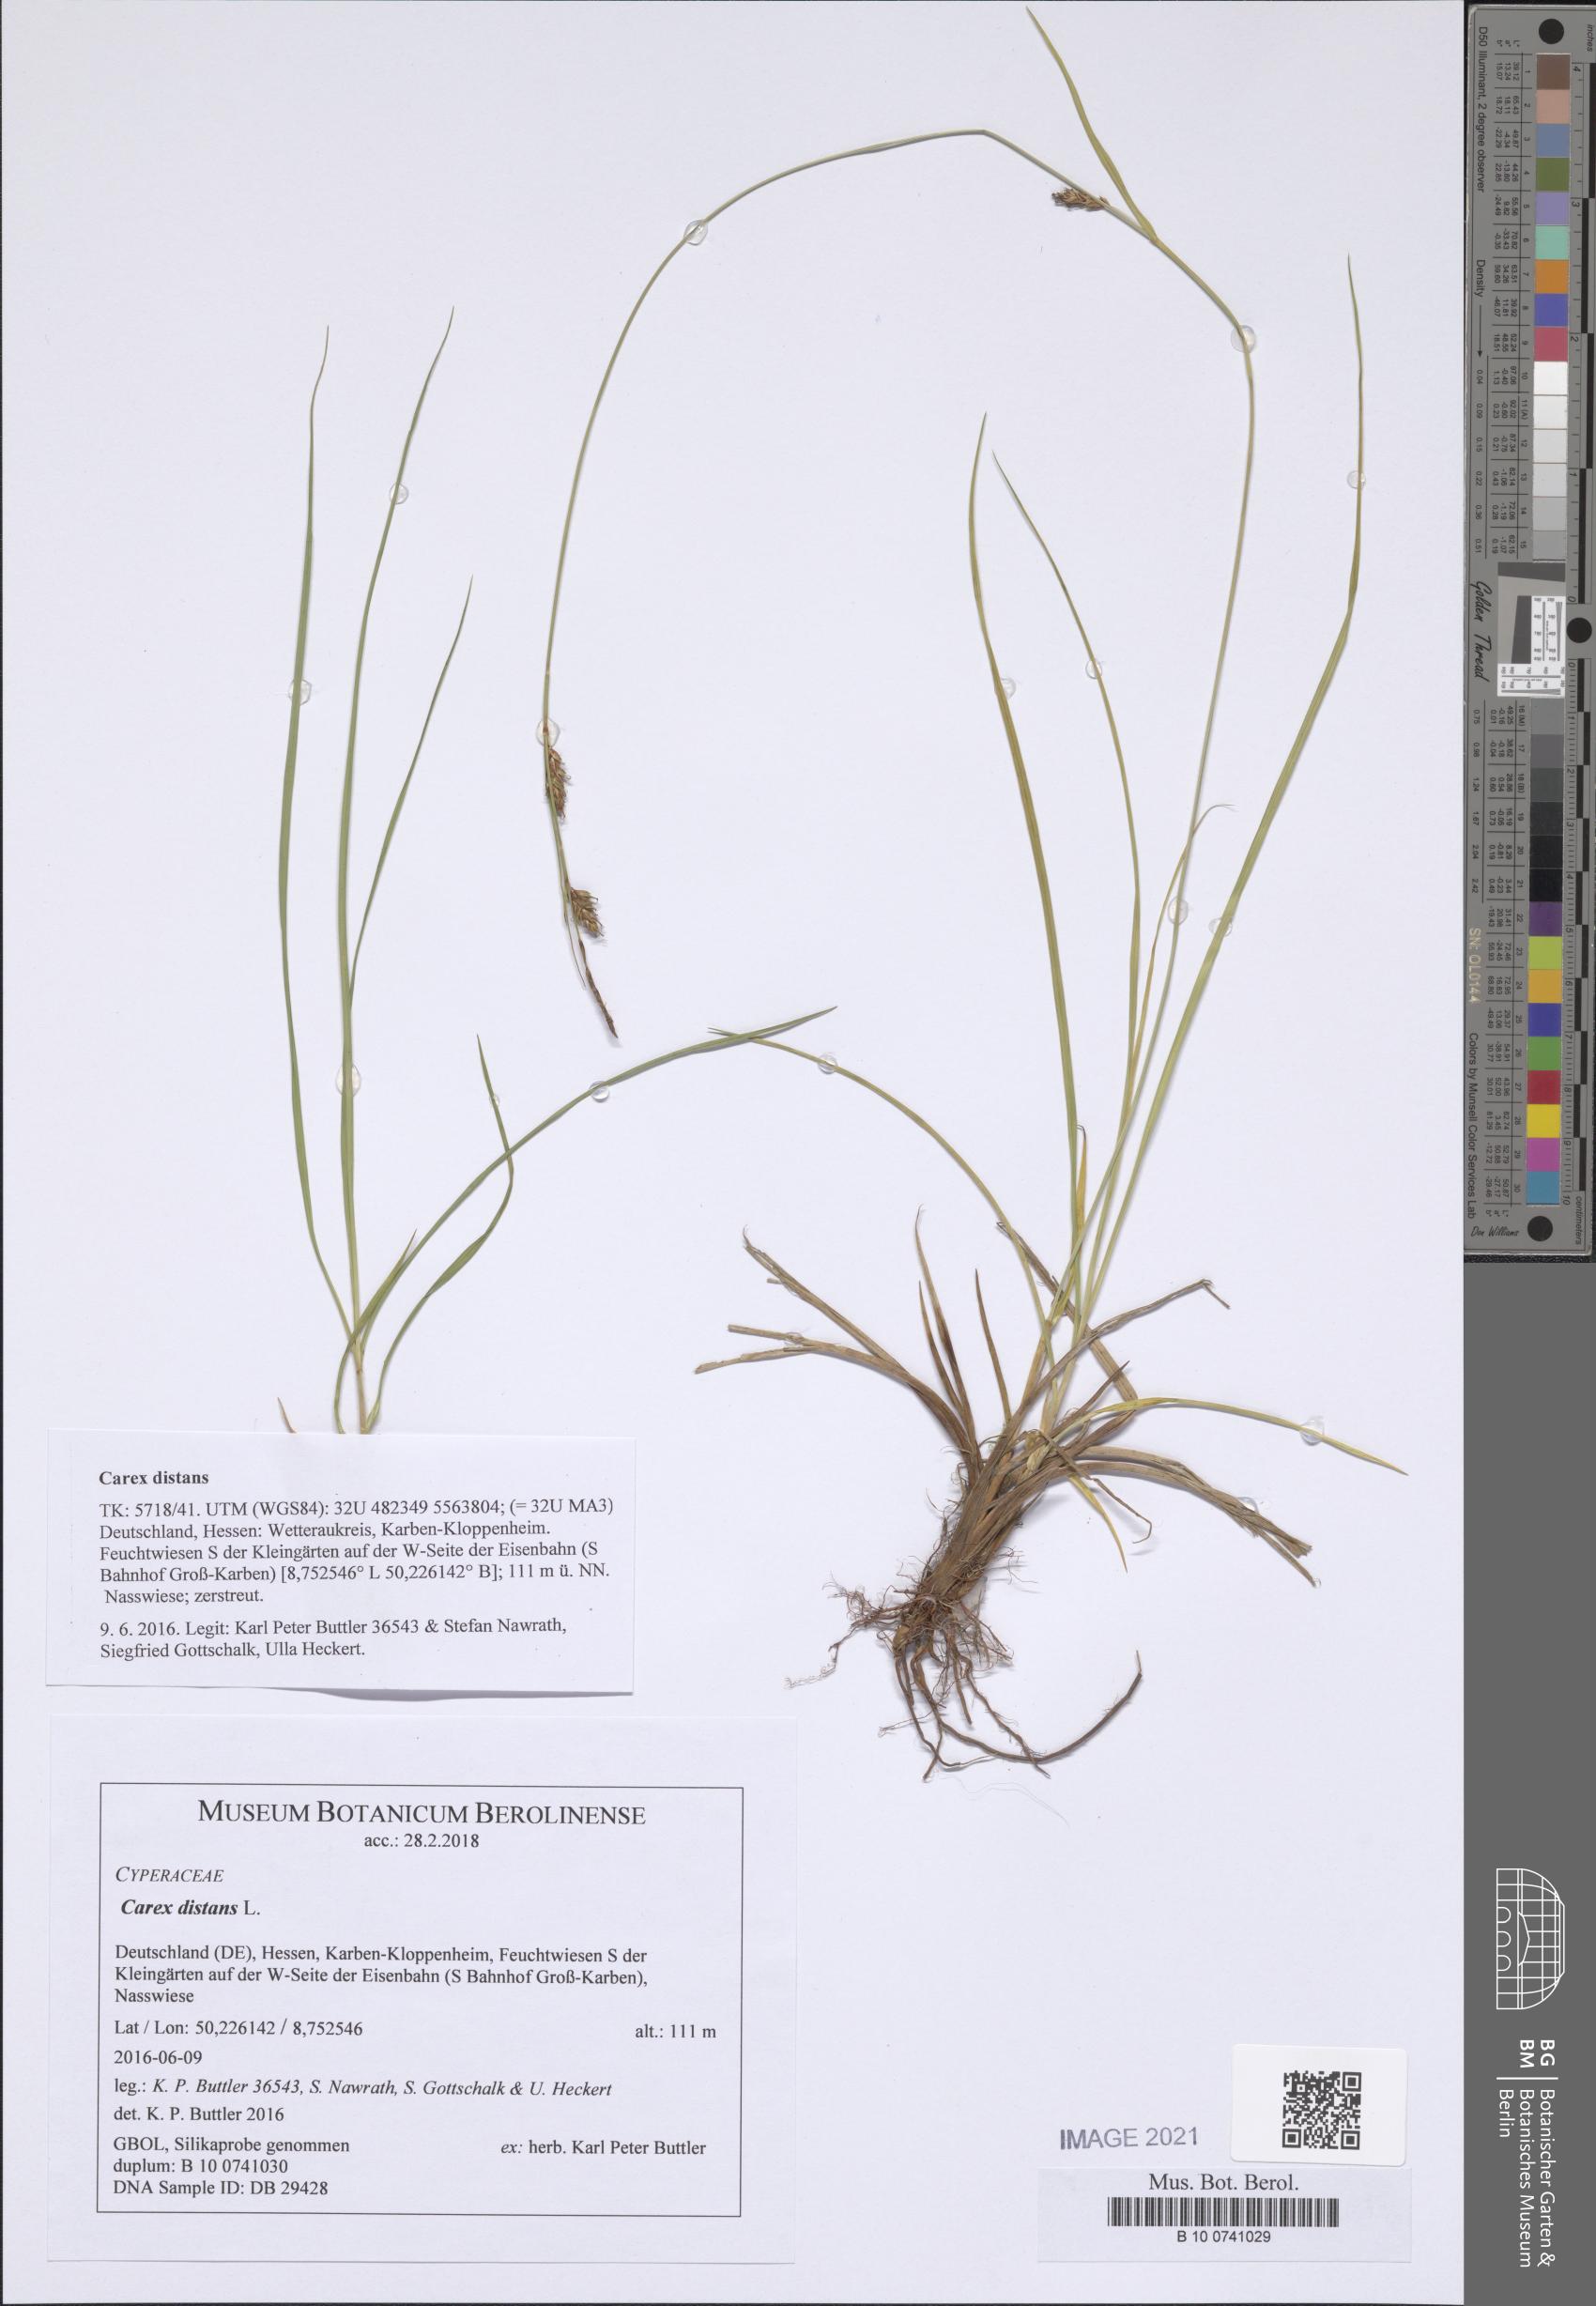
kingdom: Plantae
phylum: Tracheophyta
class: Liliopsida
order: Poales
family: Cyperaceae
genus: Carex
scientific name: Carex distans
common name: Distant sedge
